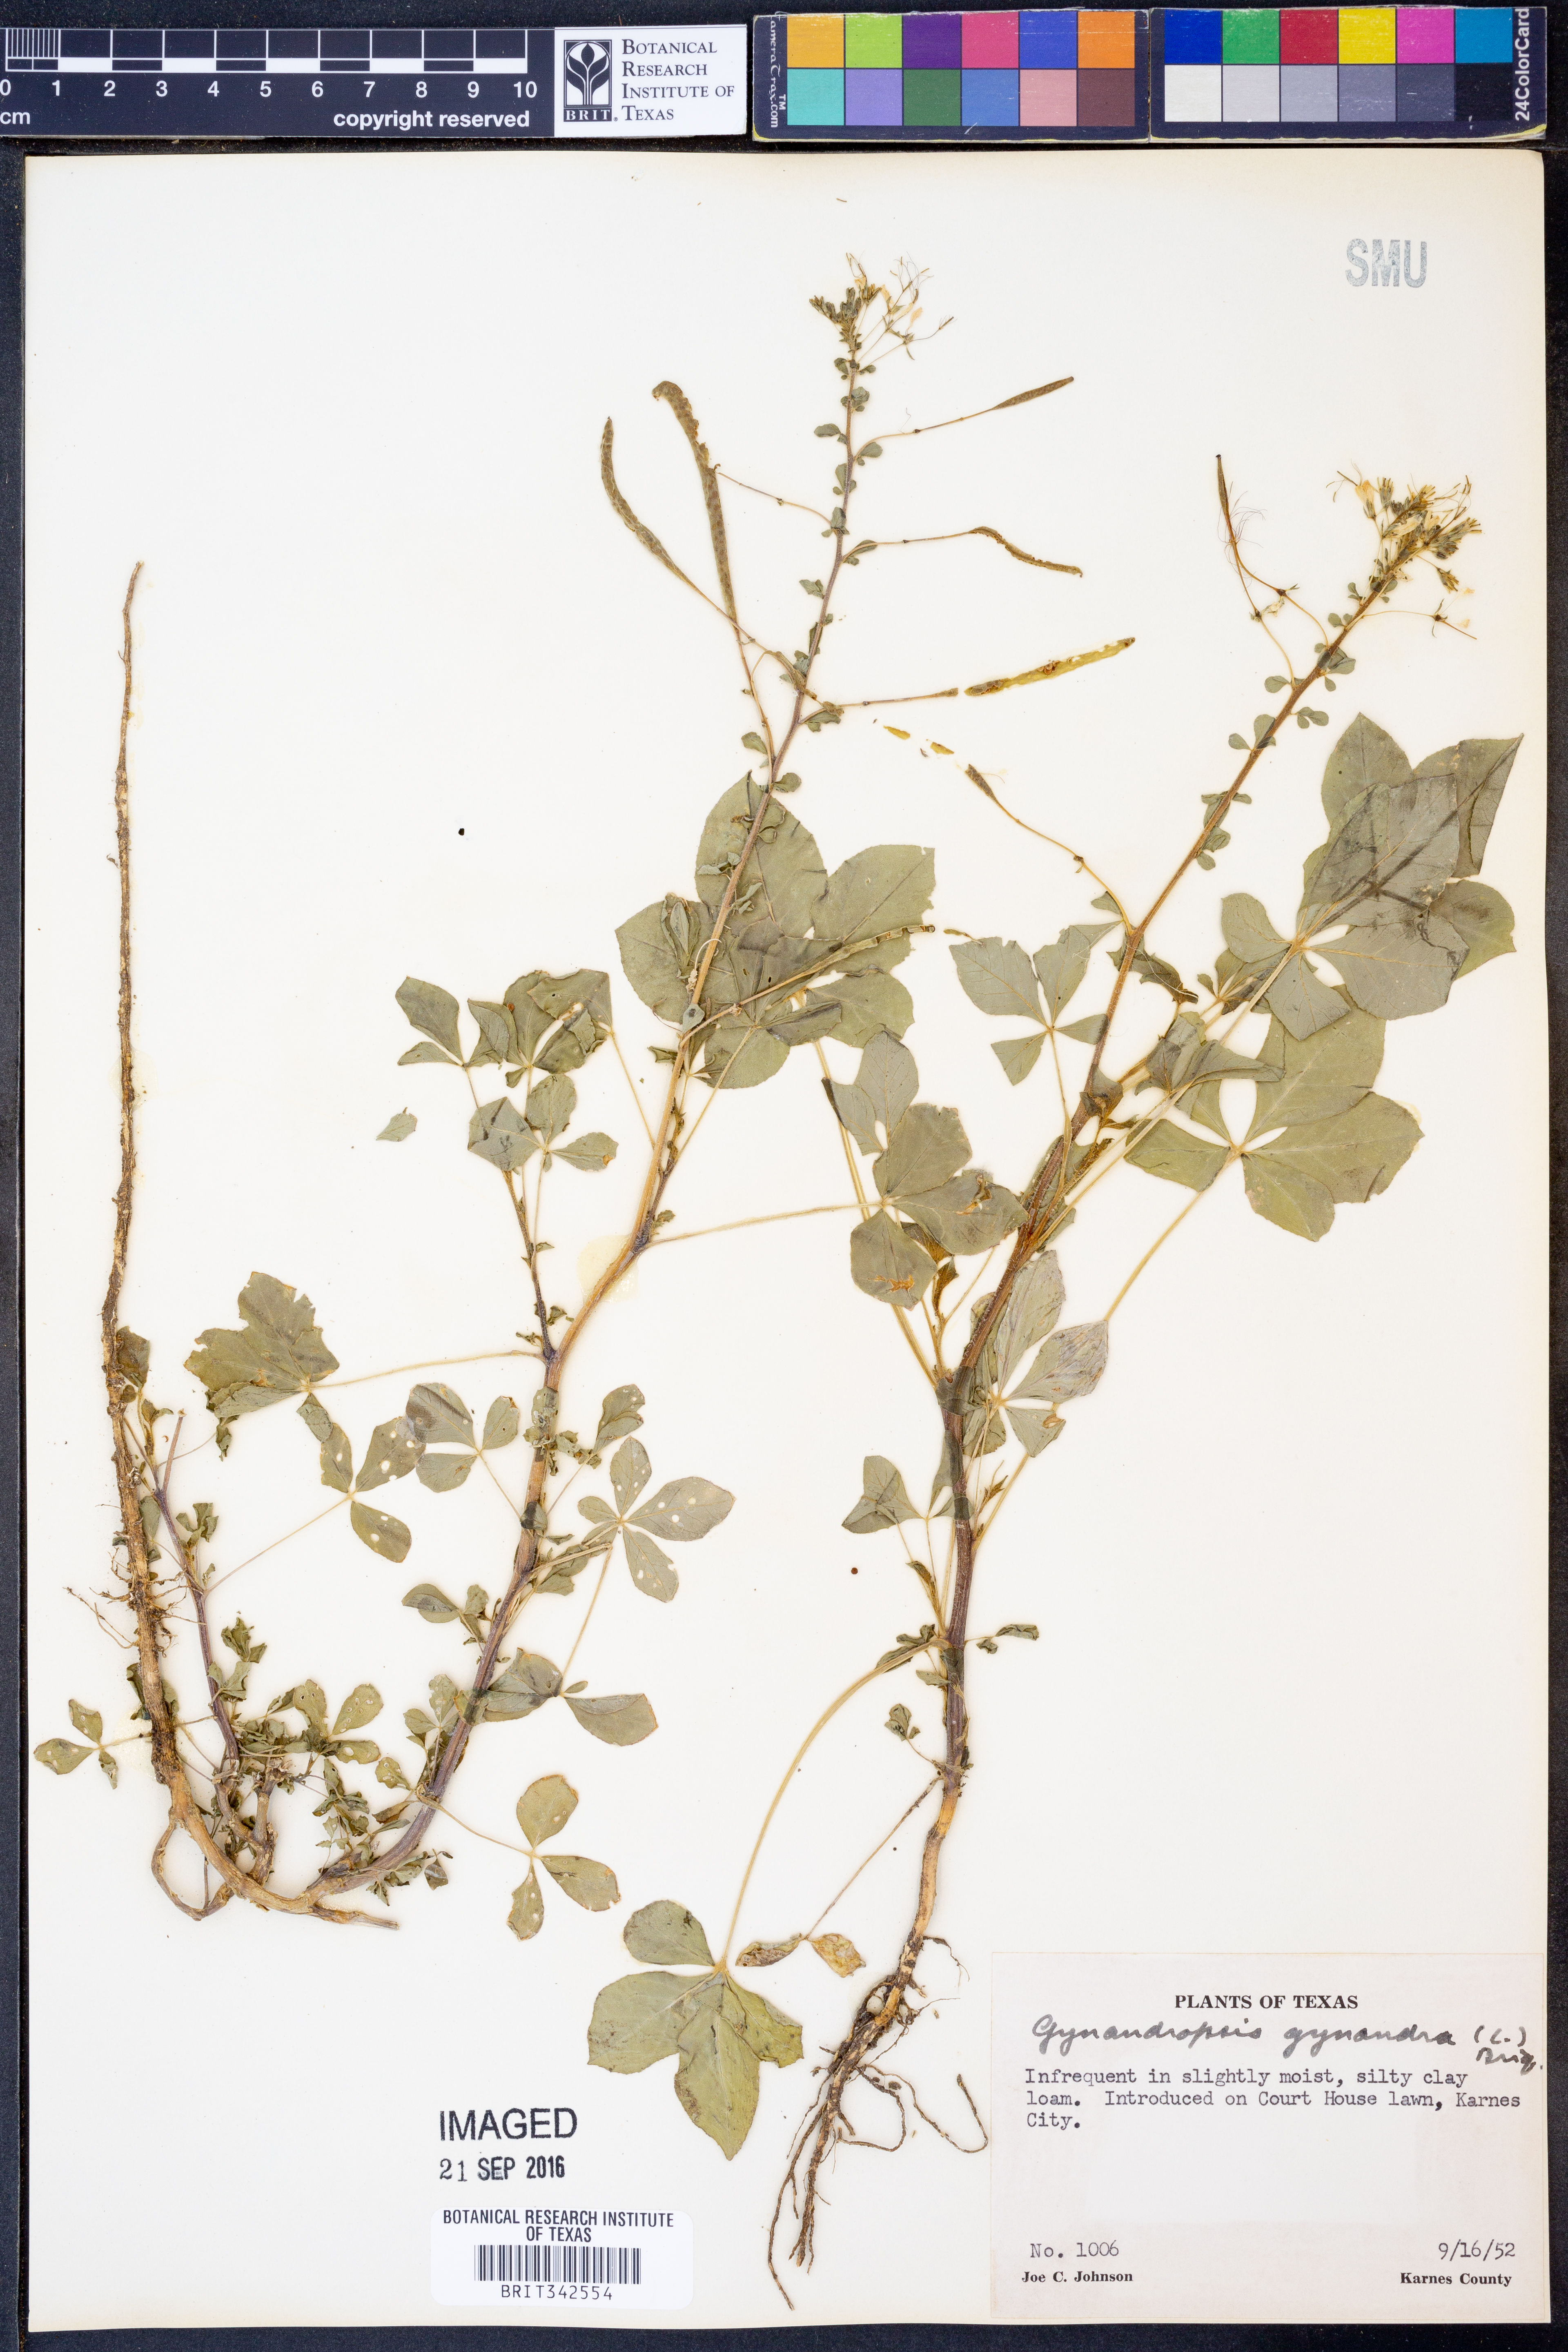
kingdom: Plantae
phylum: Tracheophyta
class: Magnoliopsida
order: Brassicales
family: Cleomaceae
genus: Gynandropsis
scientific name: Gynandropsis gynandra
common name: Spiderwisp
